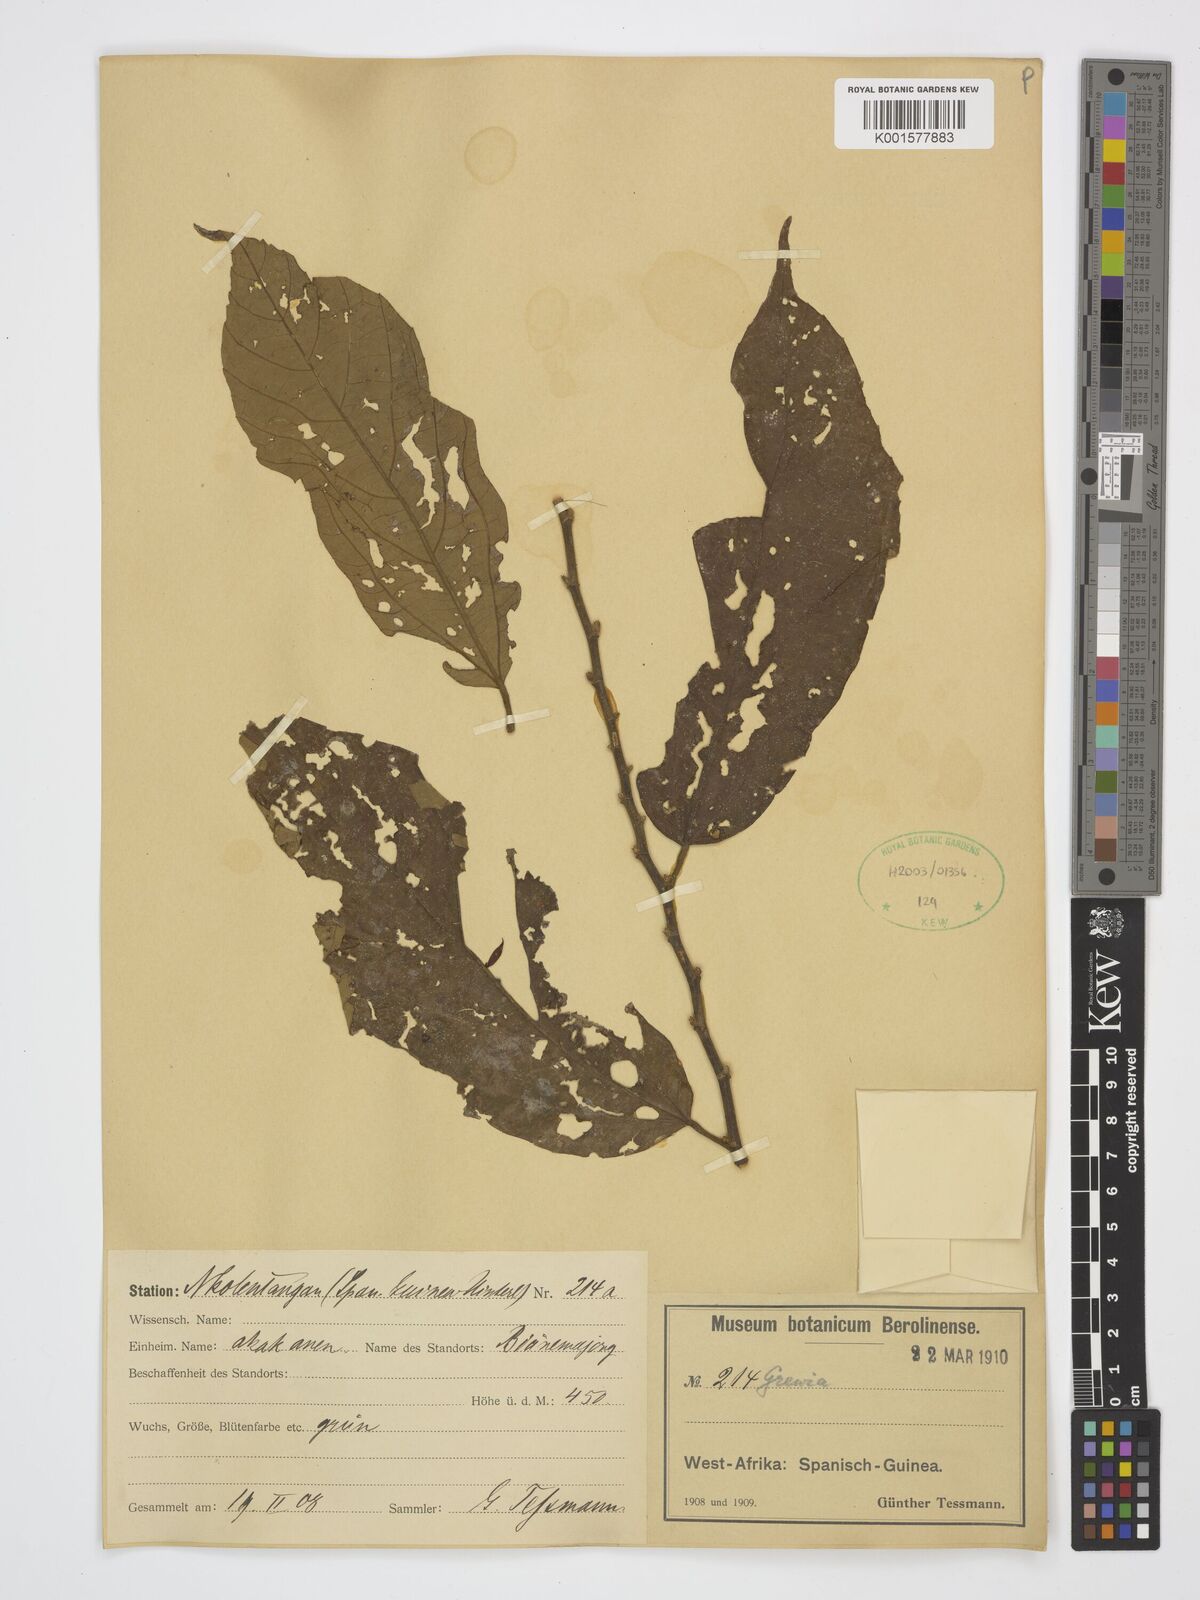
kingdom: Plantae
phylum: Tracheophyta
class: Magnoliopsida
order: Malvales
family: Malvaceae
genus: Grewia
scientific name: Grewia
